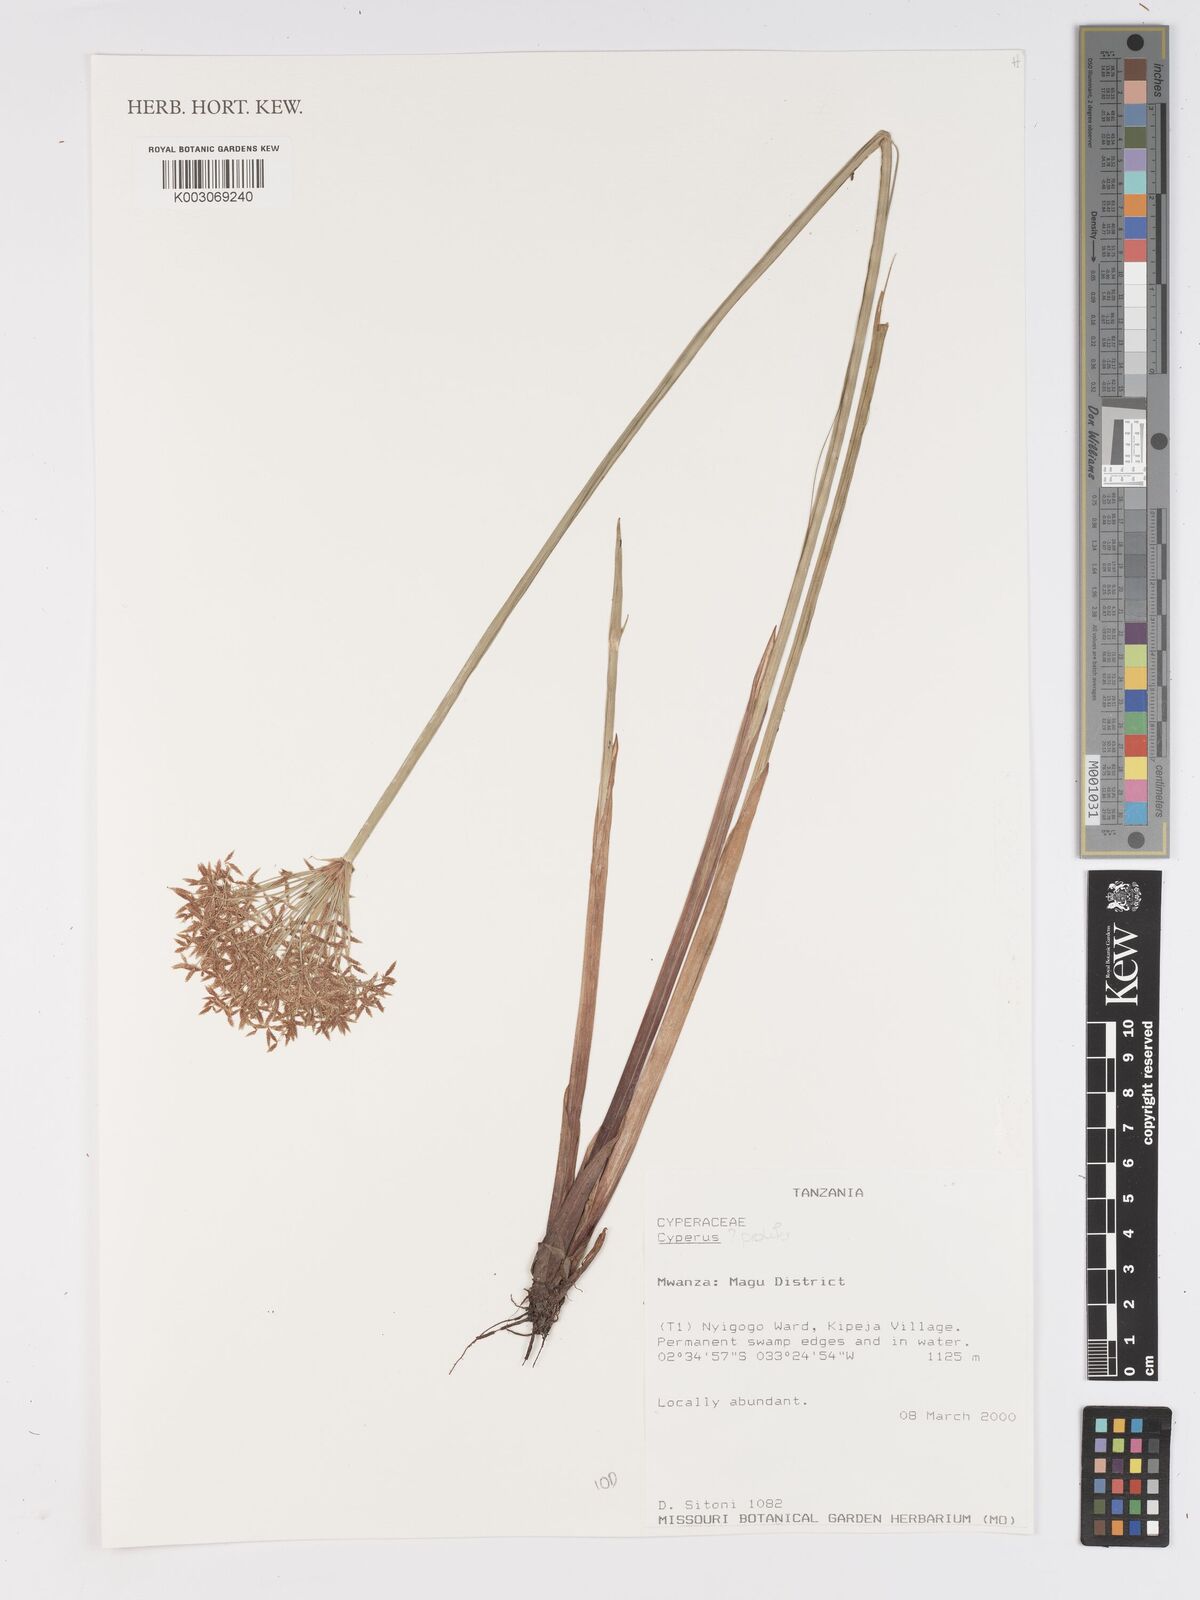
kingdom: Plantae
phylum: Tracheophyta
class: Liliopsida
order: Poales
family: Cyperaceae
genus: Cyperus
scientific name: Cyperus prolifer
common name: Miniature flatsedge
